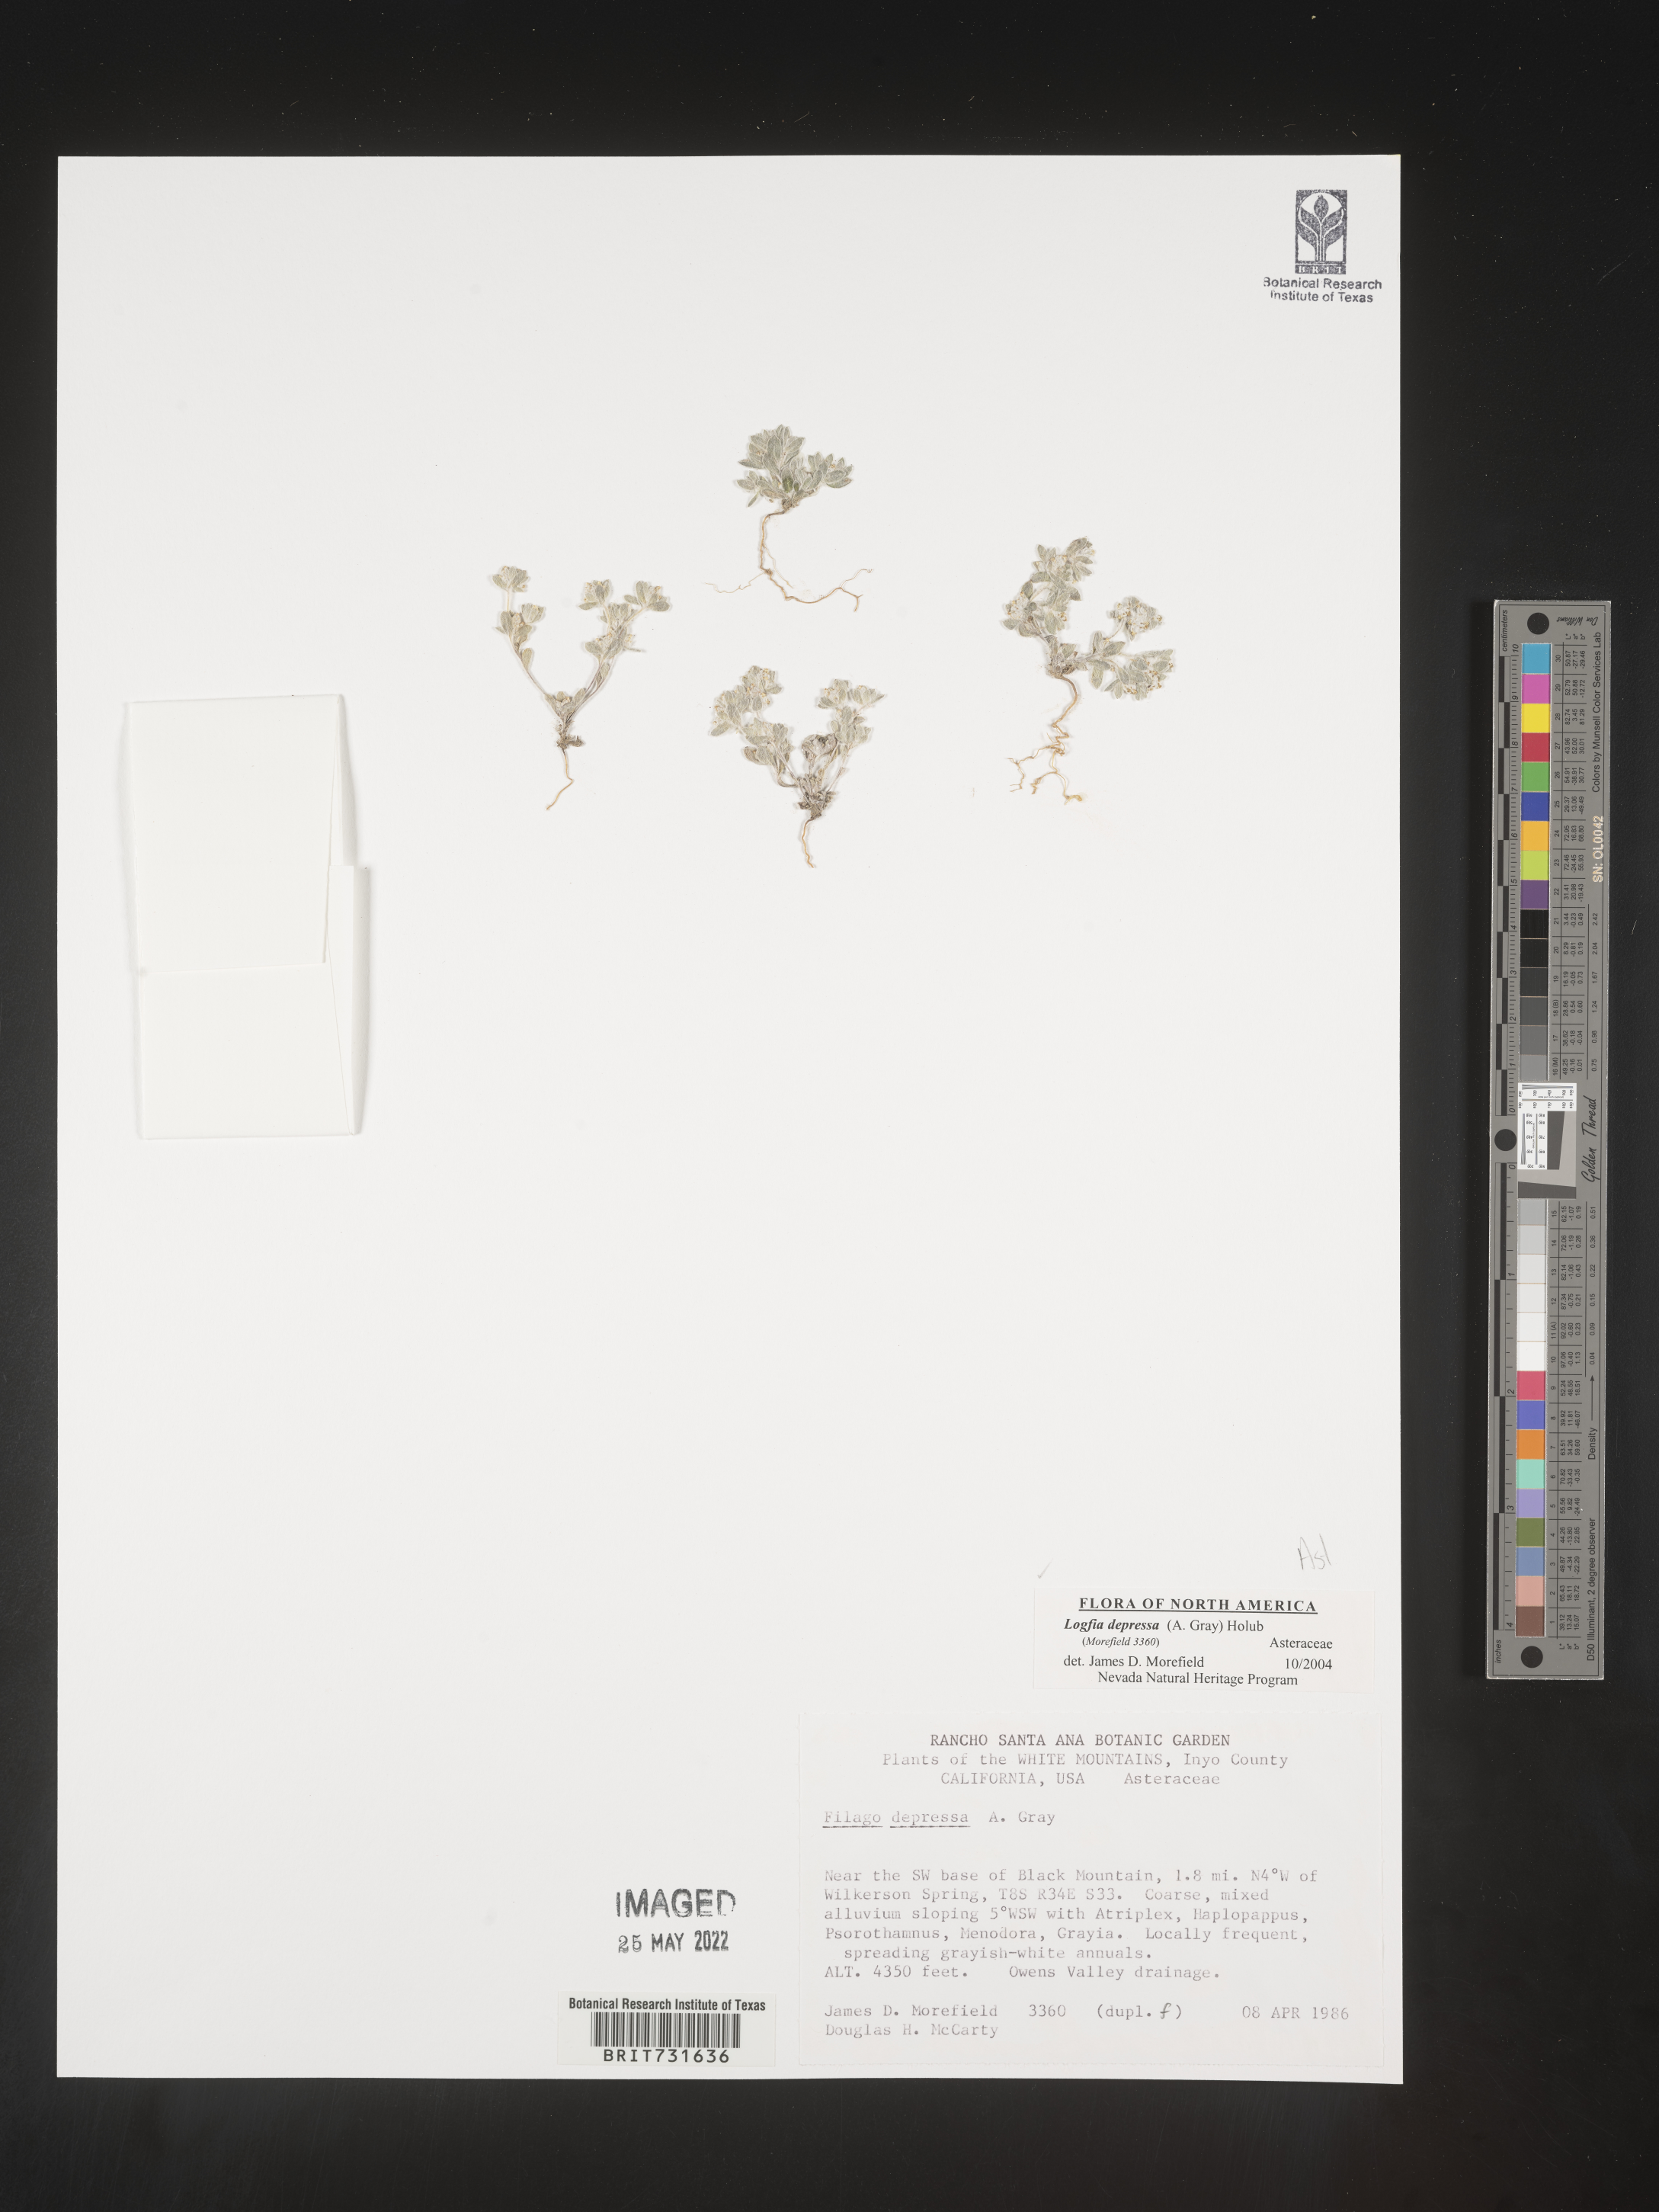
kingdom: Plantae
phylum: Tracheophyta
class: Magnoliopsida
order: Asterales
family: Asteraceae
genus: Logfia
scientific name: Logfia
